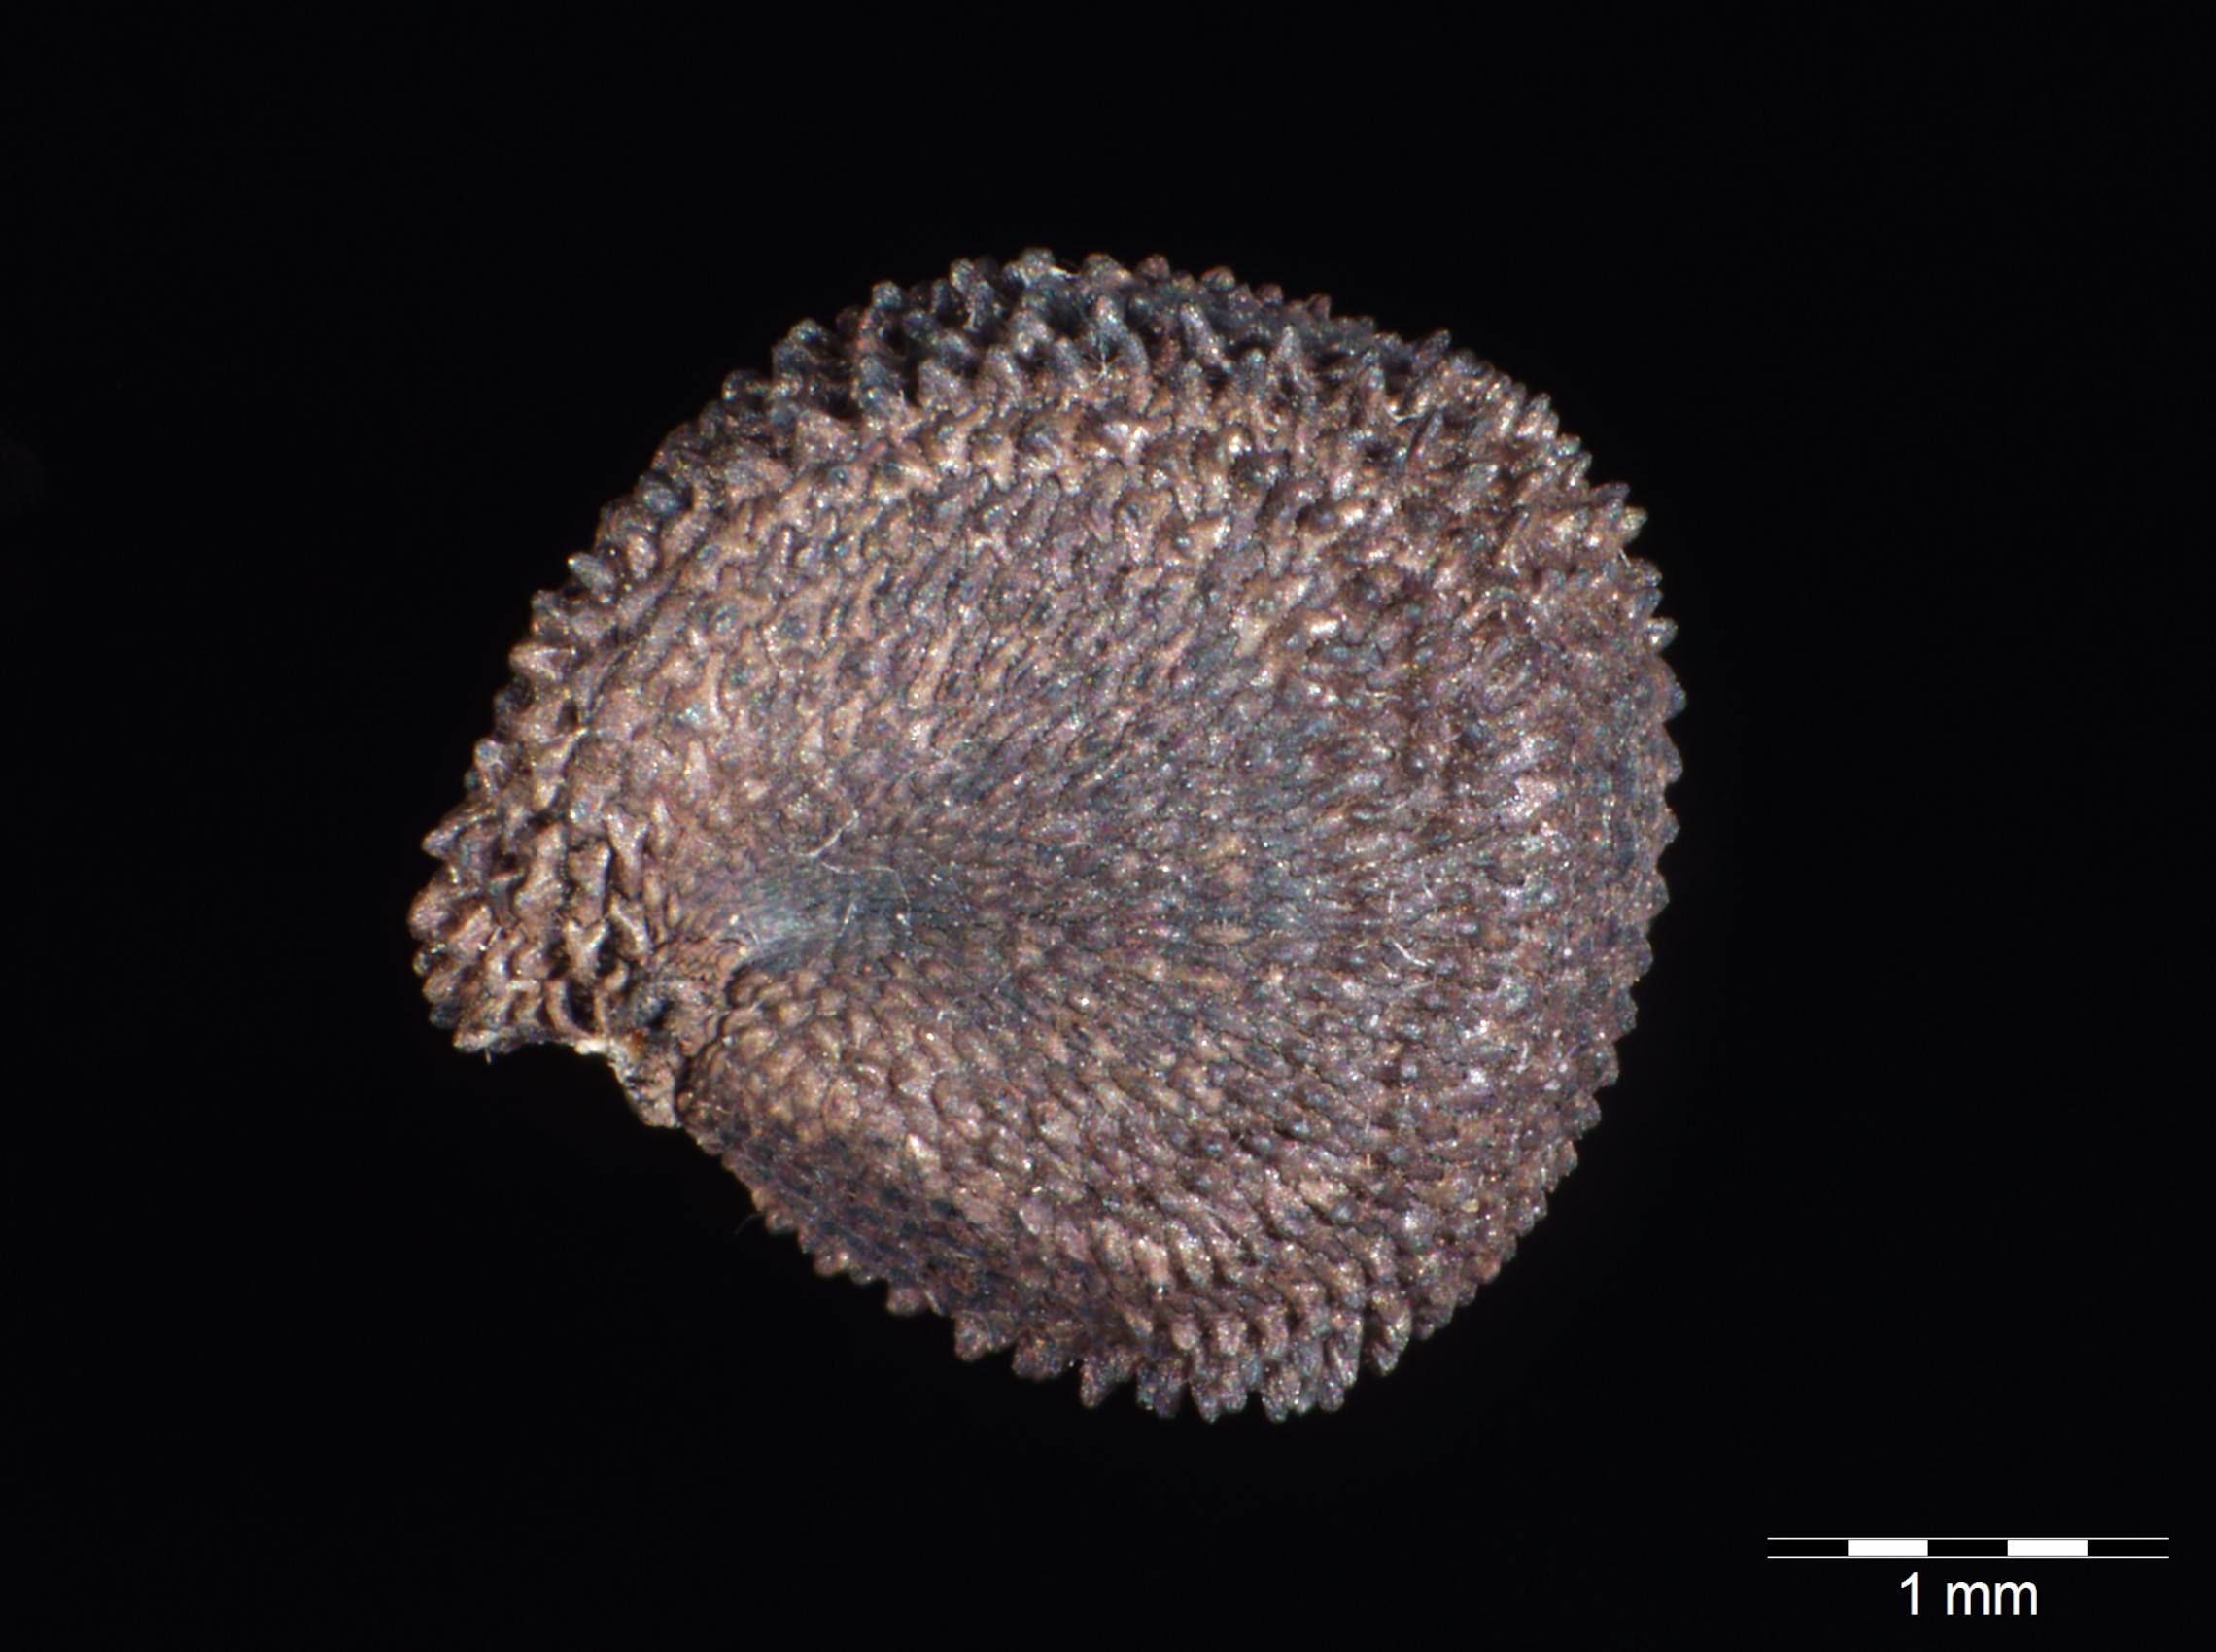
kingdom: Plantae
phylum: Tracheophyta
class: Magnoliopsida
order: Caryophyllales
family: Caryophyllaceae
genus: Agrostemma
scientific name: Agrostemma githago
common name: Common corncockle
